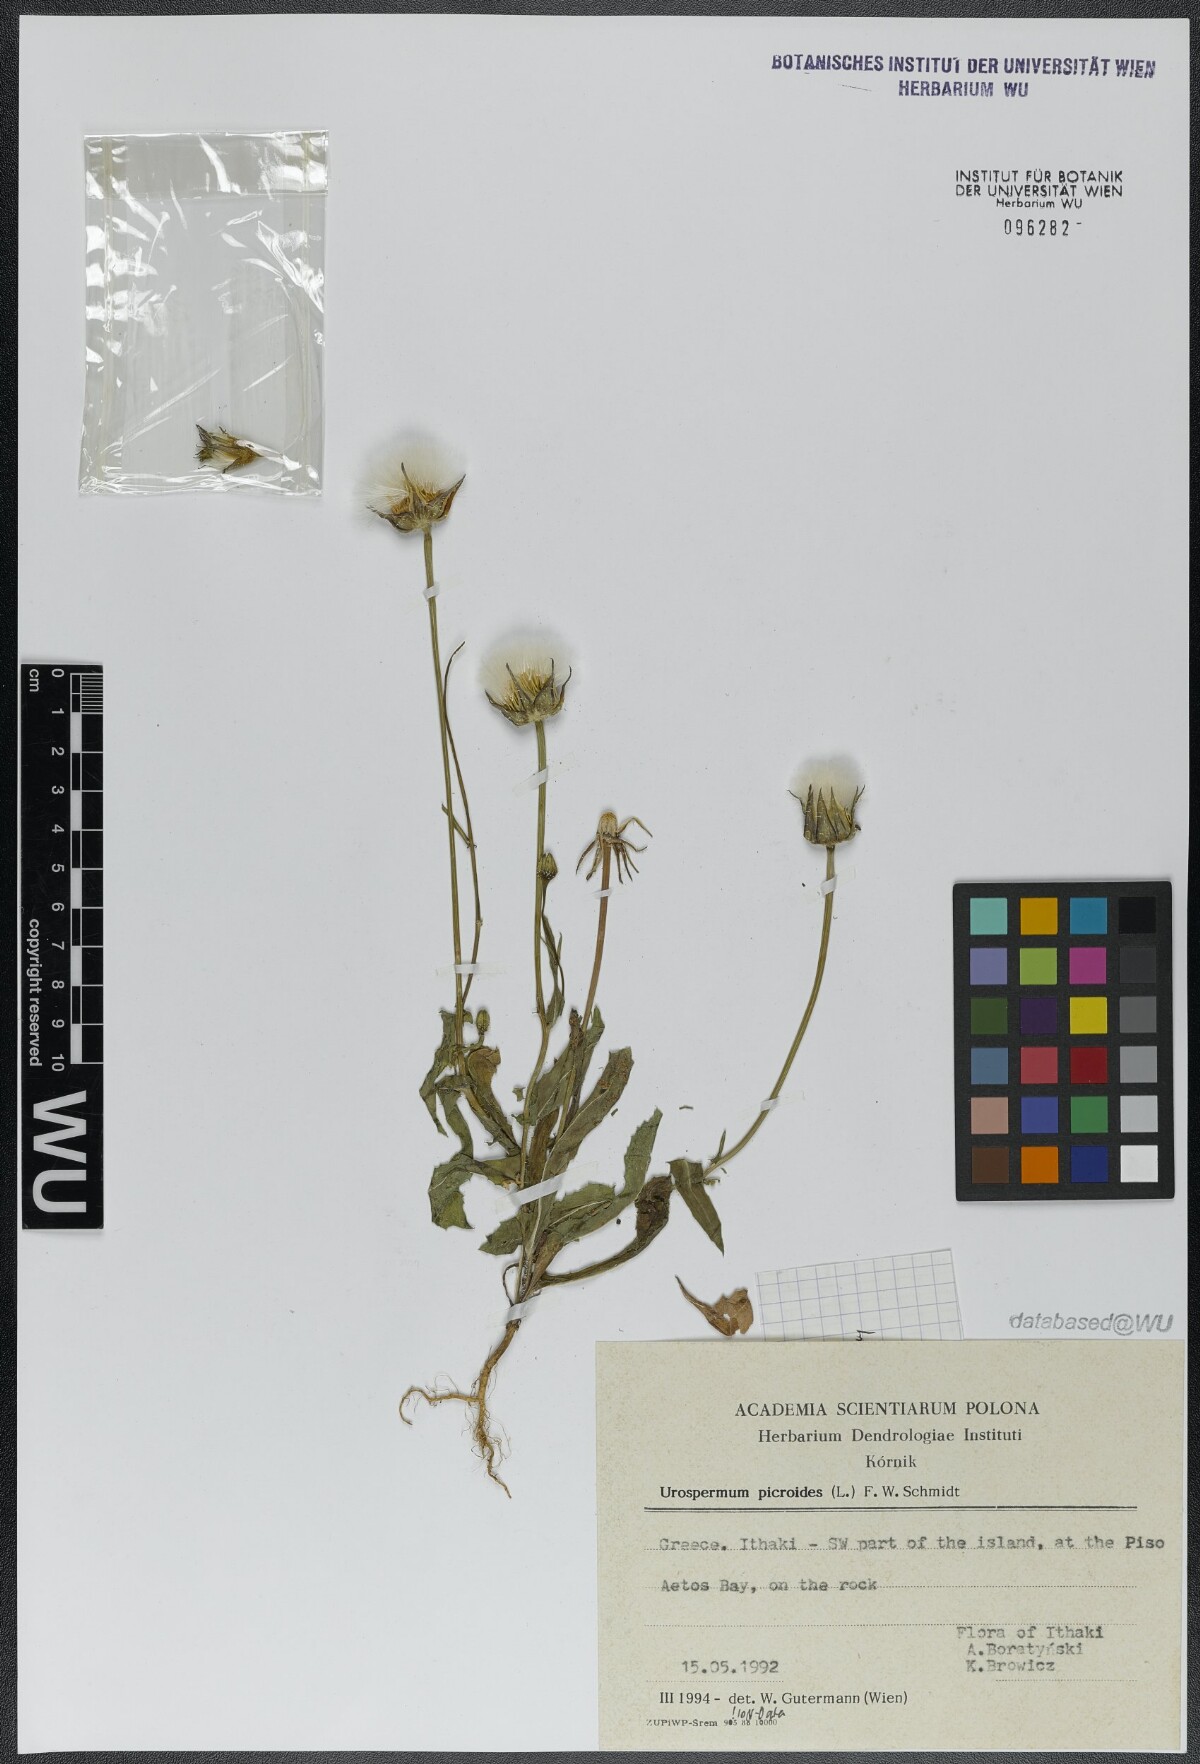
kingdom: Plantae
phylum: Tracheophyta
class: Magnoliopsida
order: Asterales
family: Asteraceae
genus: Urospermum
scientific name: Urospermum picroides
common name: False hawkbit
